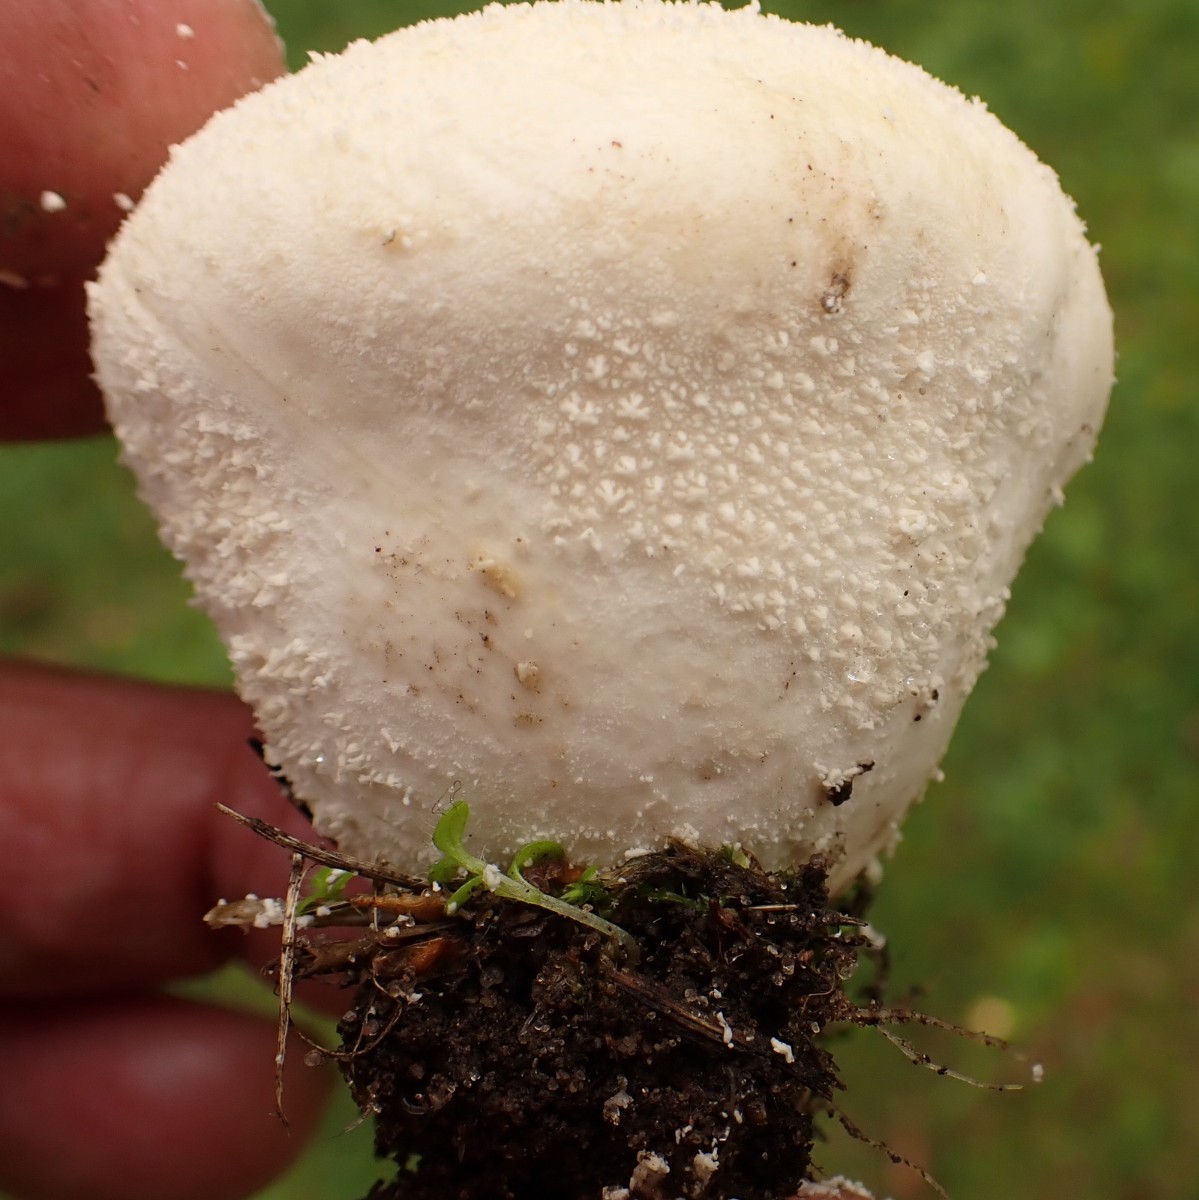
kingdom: Fungi
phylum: Basidiomycota
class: Agaricomycetes
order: Agaricales
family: Lycoperdaceae
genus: Lycoperdon
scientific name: Lycoperdon pratense
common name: flad støvbold
